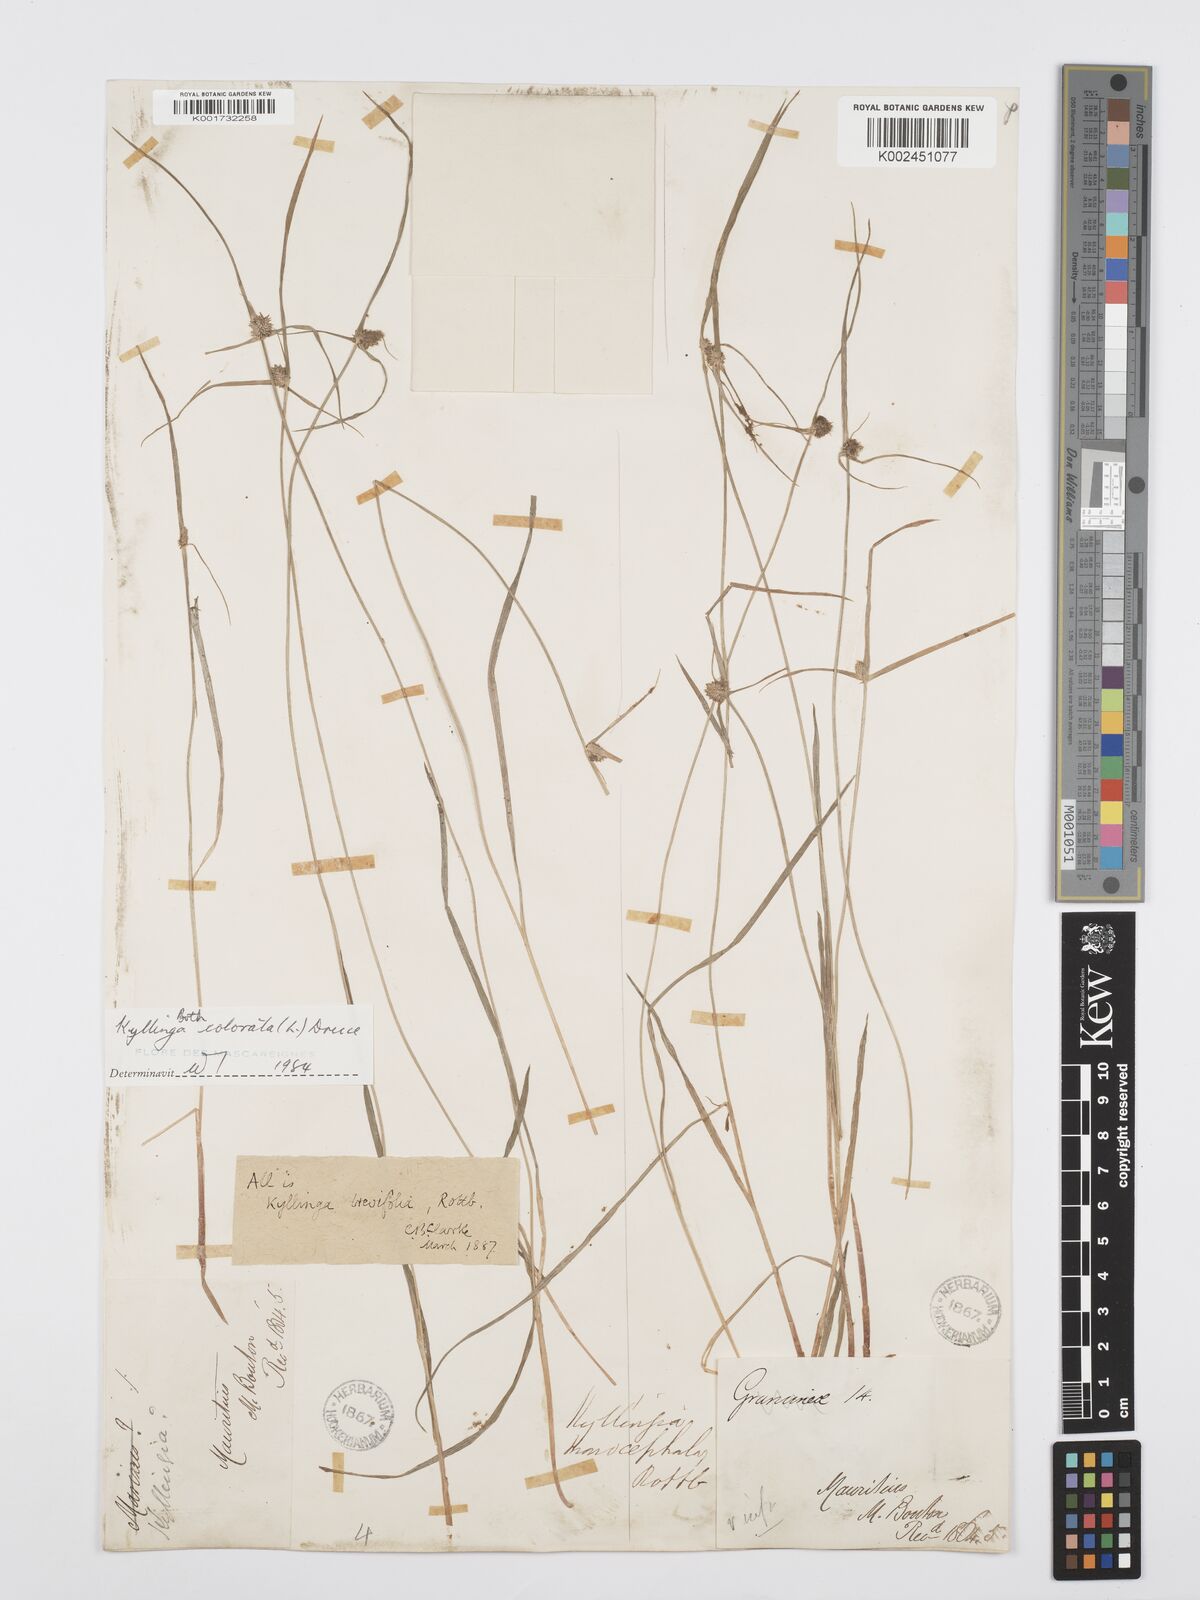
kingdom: Plantae
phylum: Tracheophyta
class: Liliopsida
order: Poales
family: Cyperaceae
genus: Cyperus
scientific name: Cyperus brevifolius
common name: Globe kyllinga
